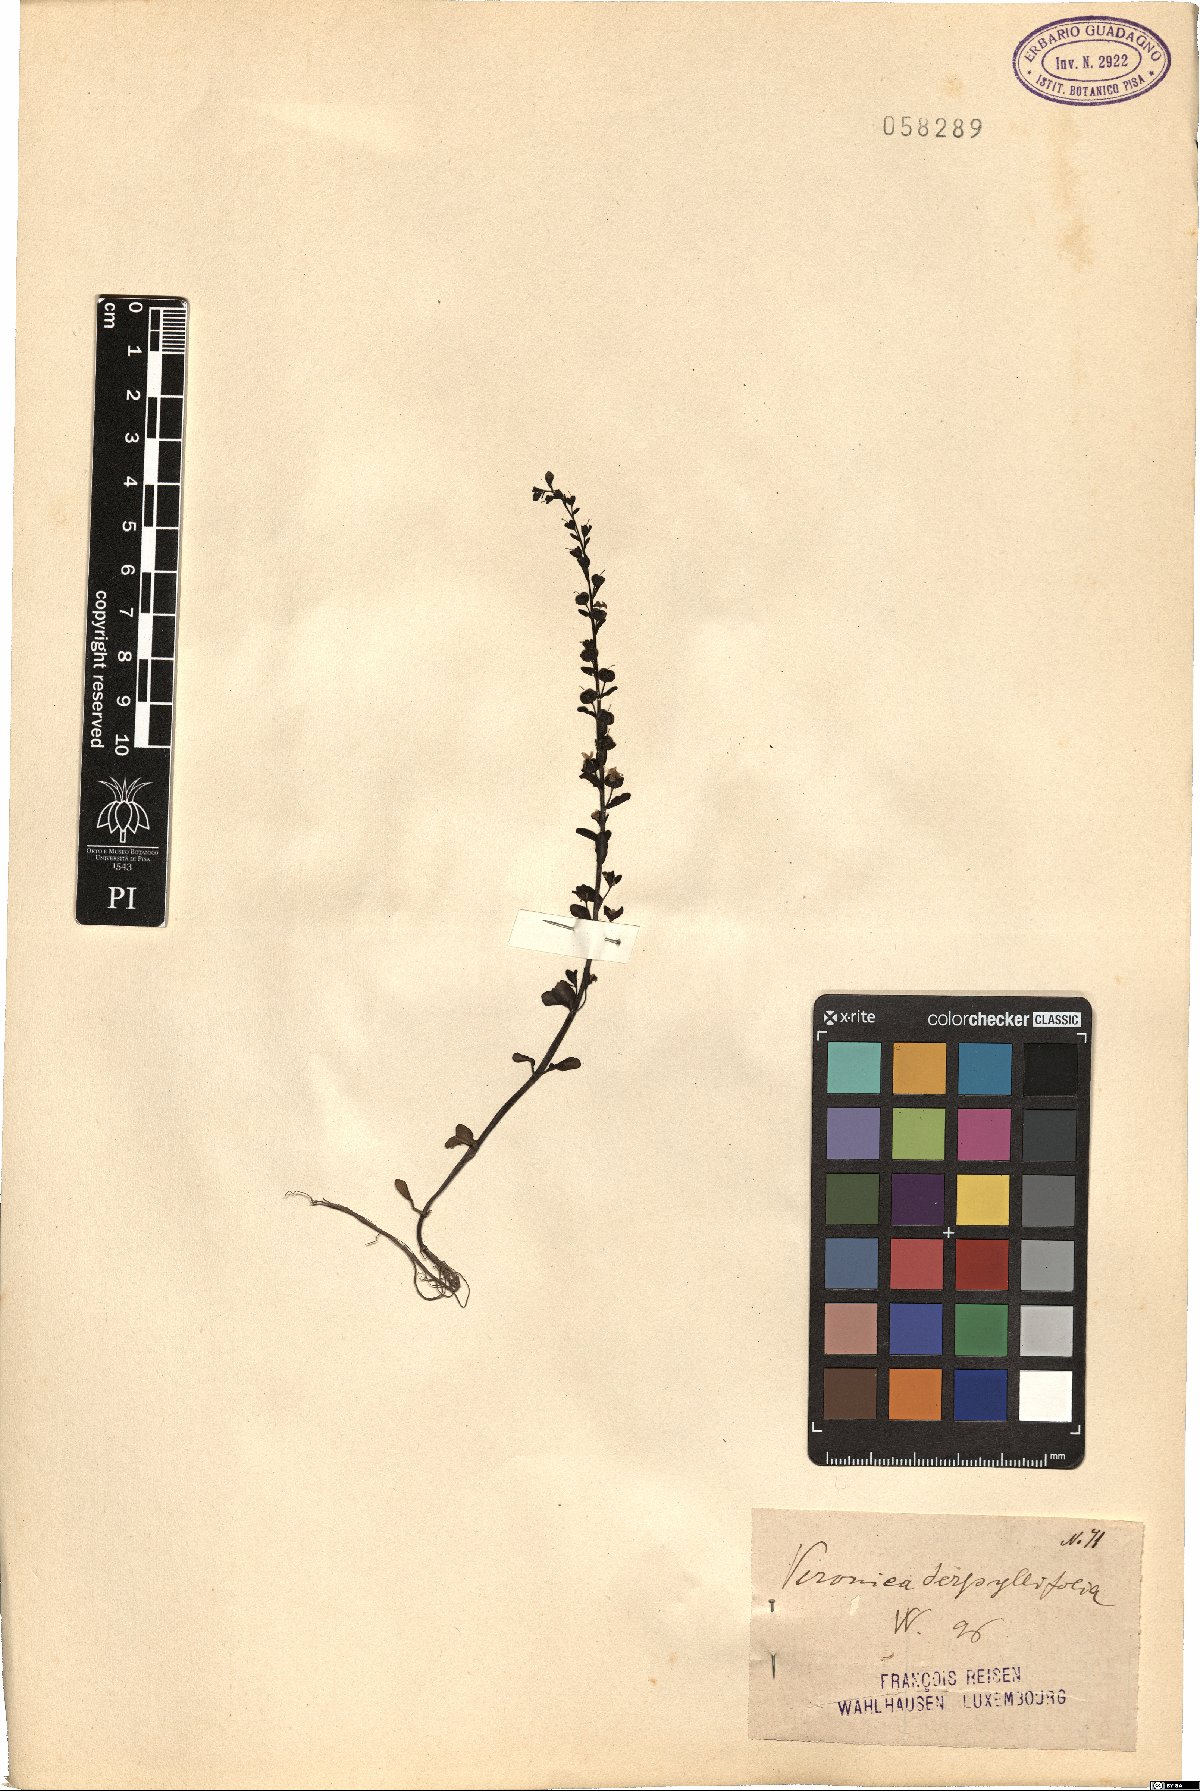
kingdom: Plantae
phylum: Tracheophyta
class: Magnoliopsida
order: Lamiales
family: Plantaginaceae
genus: Veronica
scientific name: Veronica serpyllifolia
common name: Thyme-leaved speedwell
